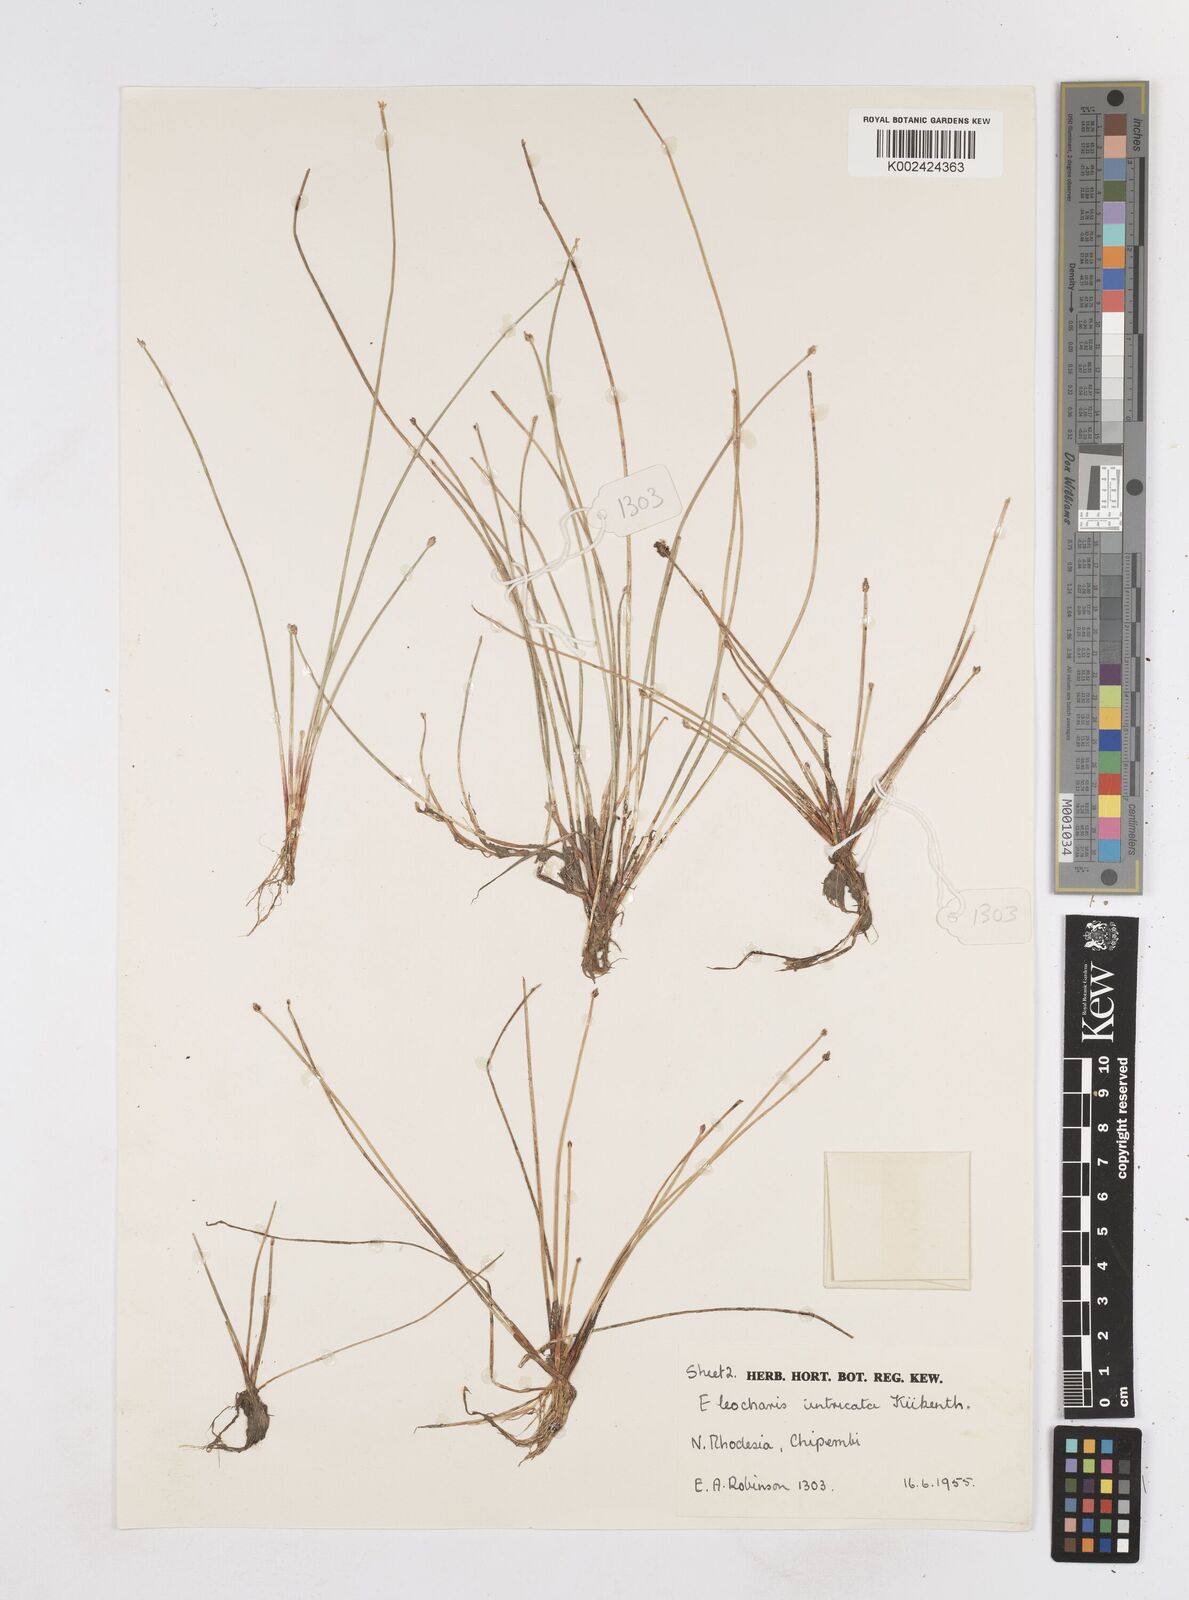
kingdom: Plantae
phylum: Tracheophyta
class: Liliopsida
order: Poales
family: Cyperaceae
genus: Eleocharis
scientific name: Eleocharis caduca
